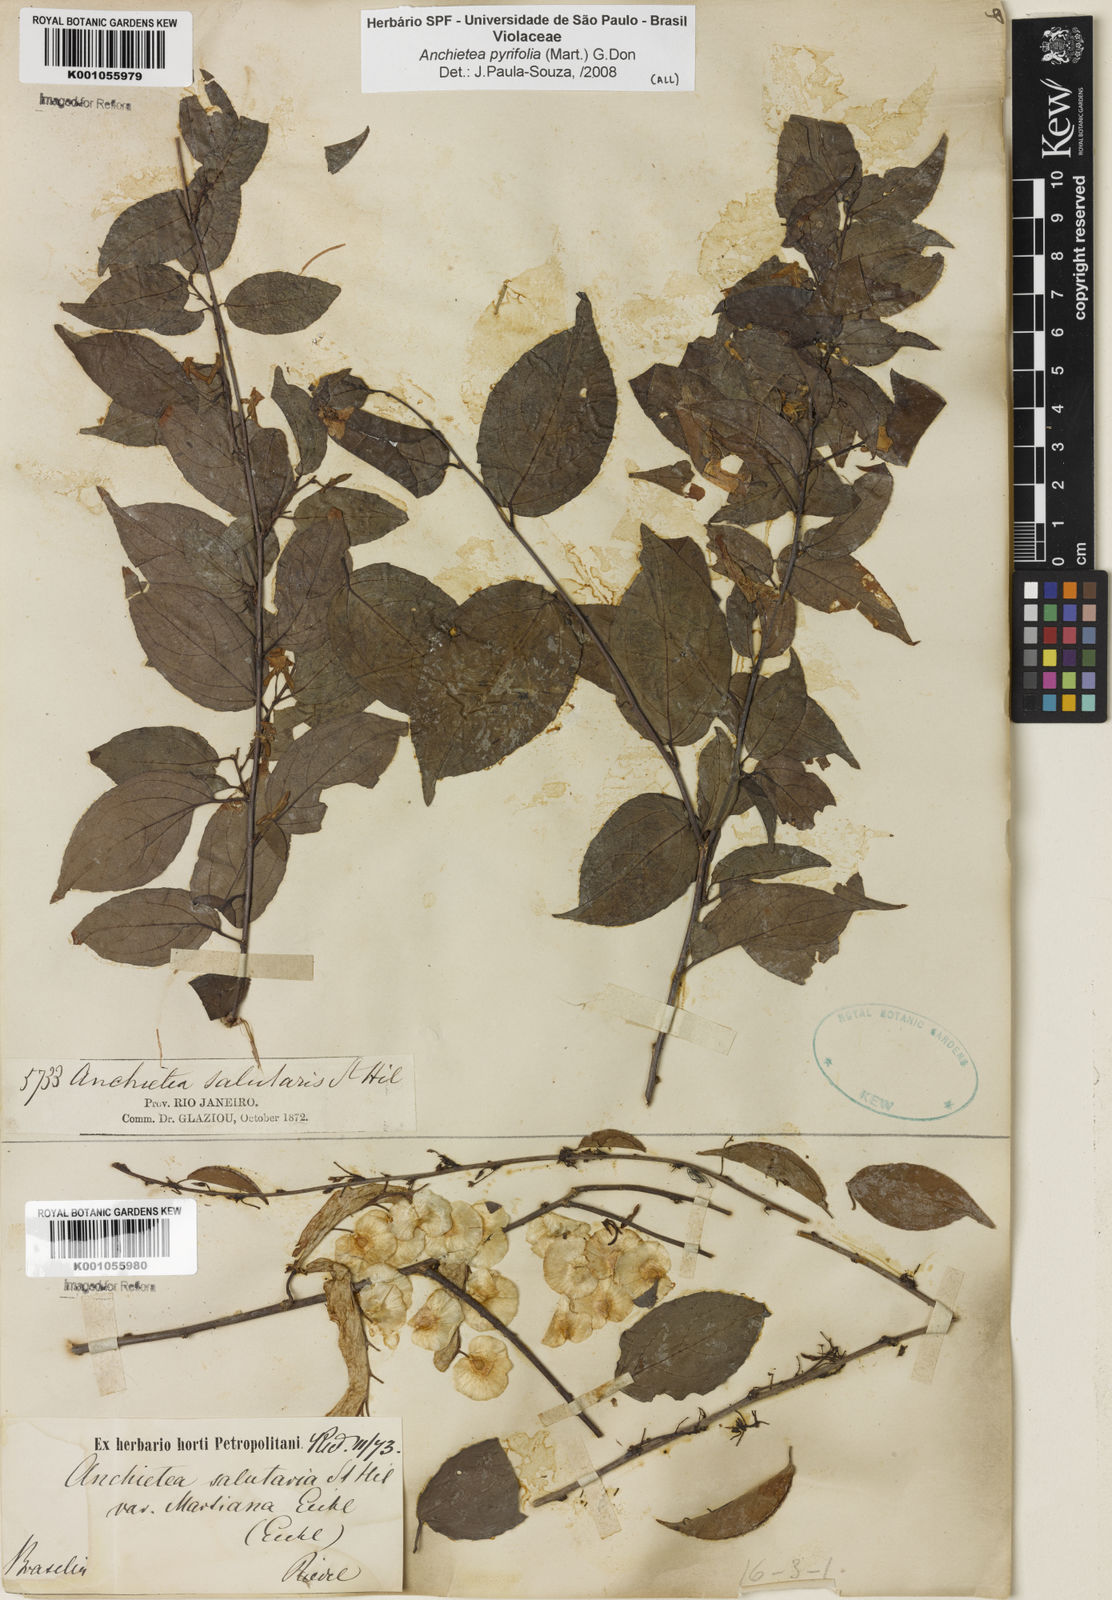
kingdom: Plantae
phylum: Tracheophyta
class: Magnoliopsida
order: Malpighiales
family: Violaceae
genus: Anchietea
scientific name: Anchietea pyrifolia
